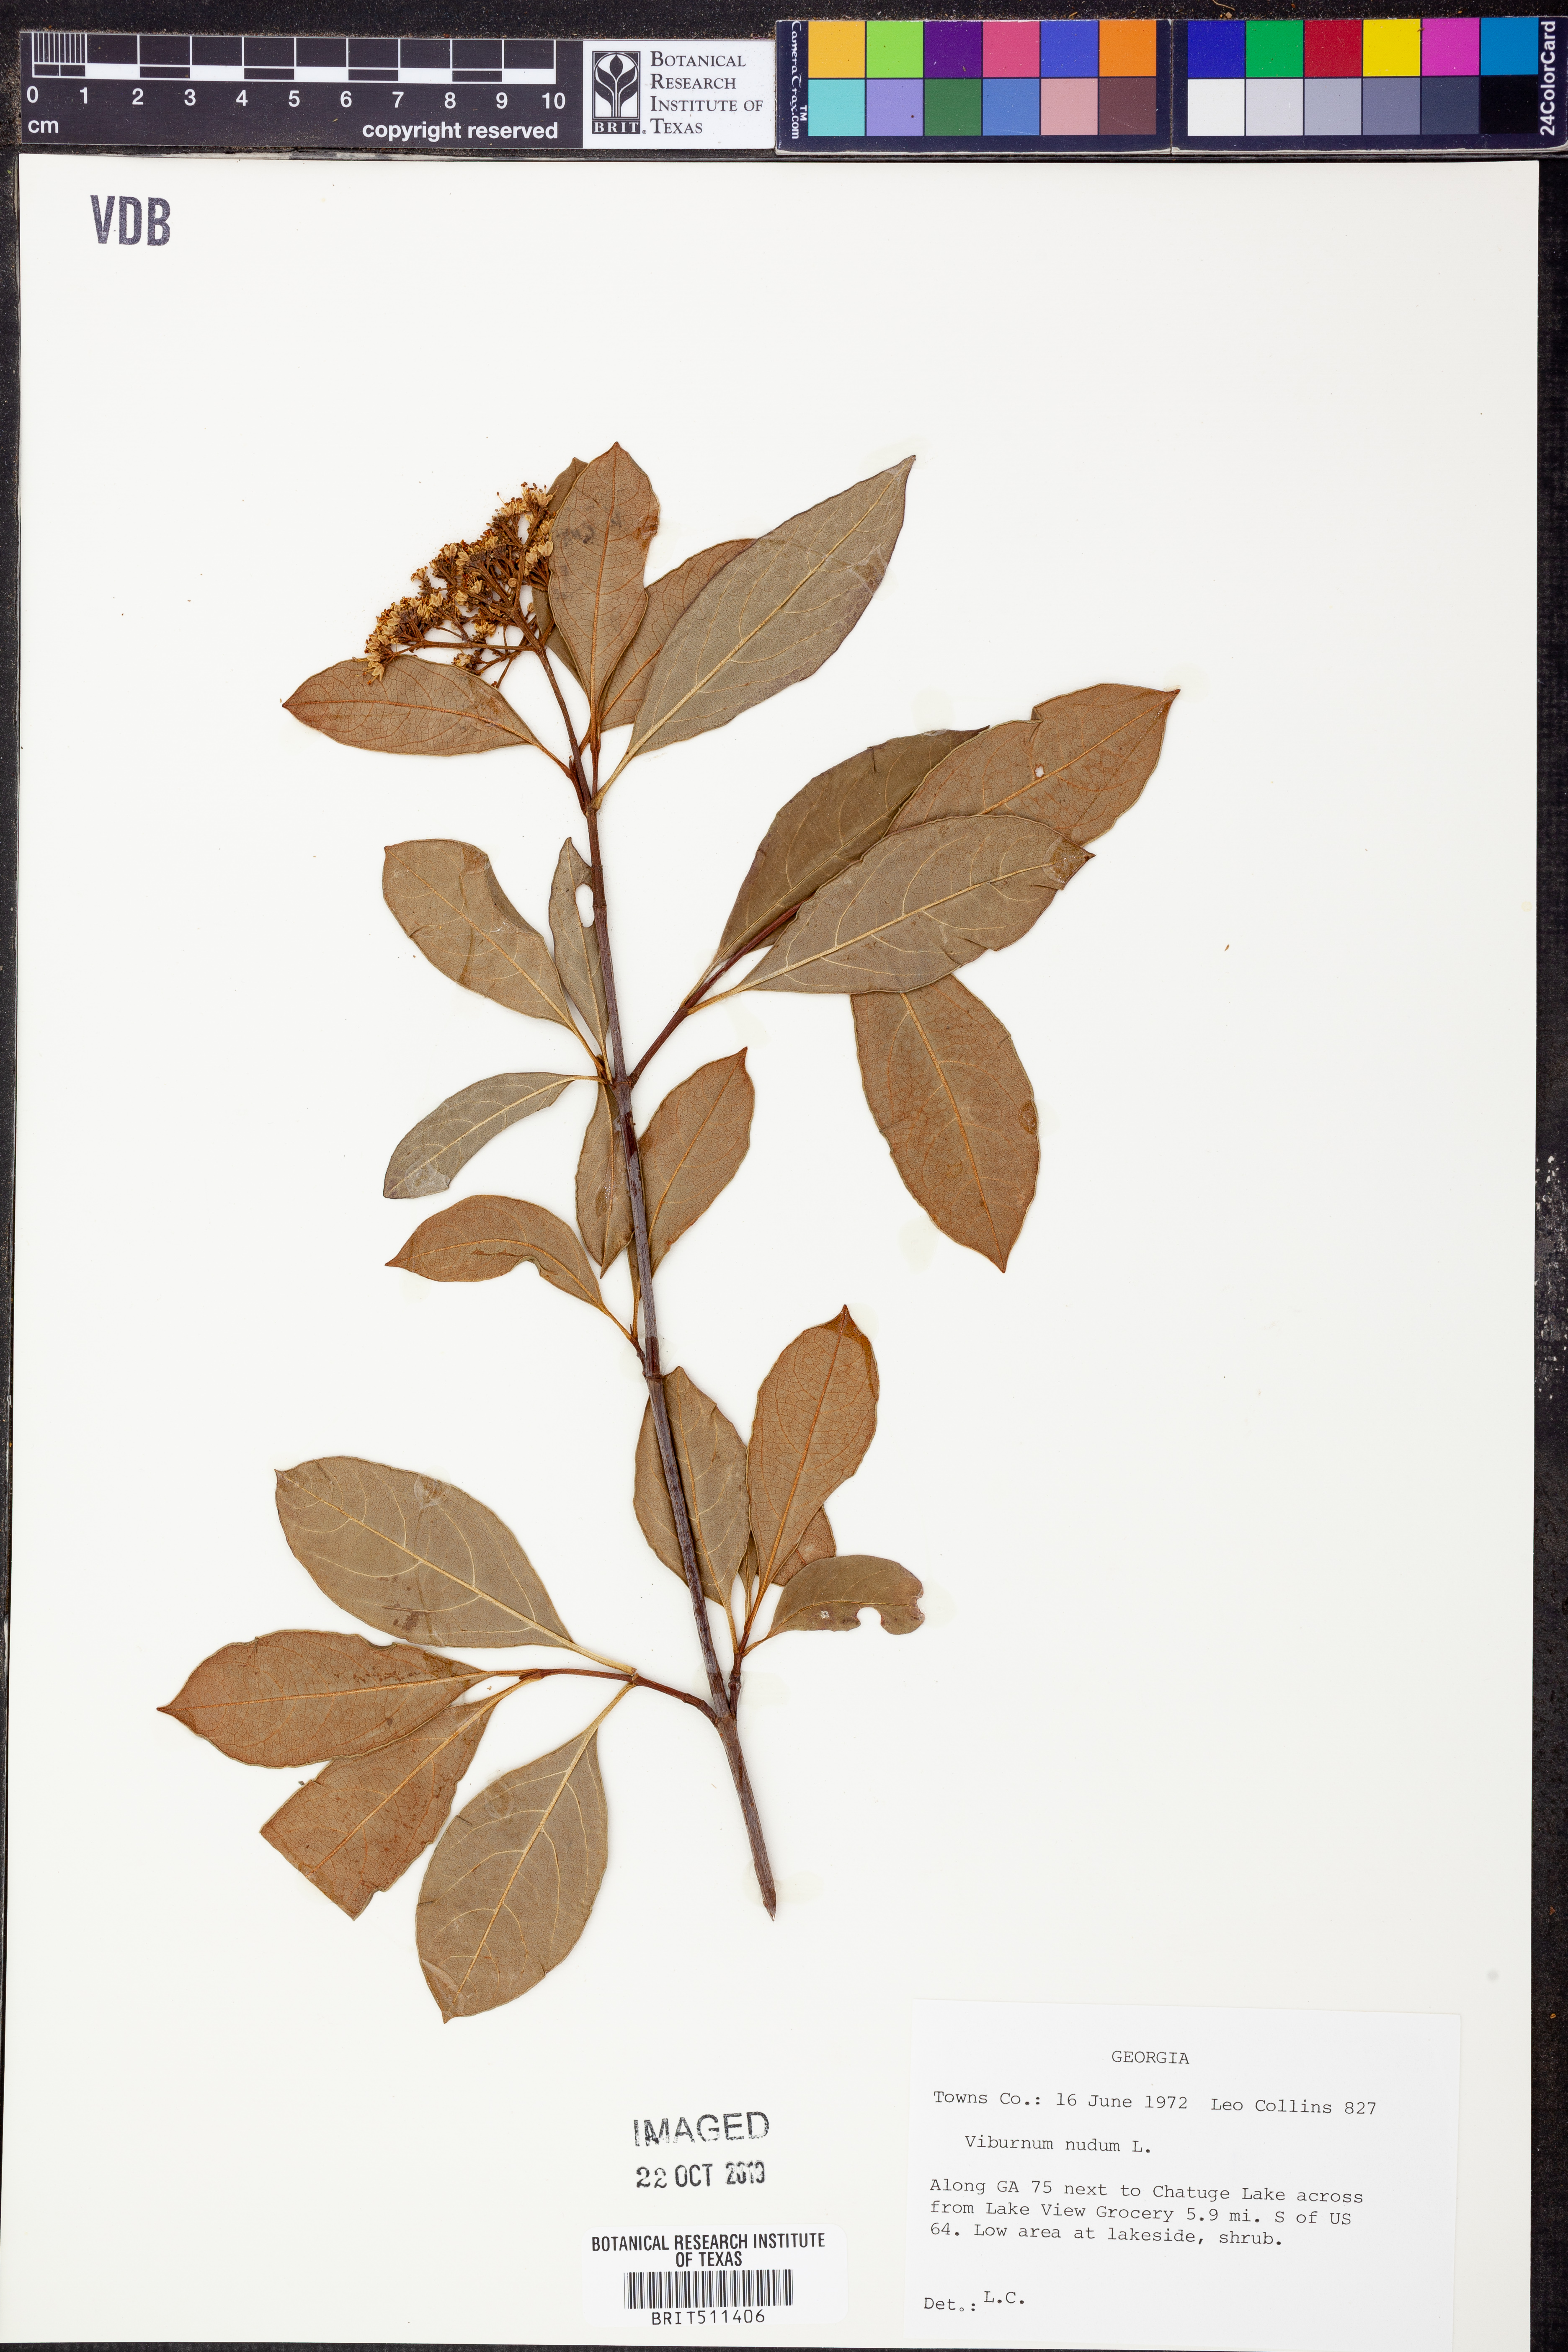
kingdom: Plantae
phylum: Tracheophyta
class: Magnoliopsida
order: Dipsacales
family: Viburnaceae
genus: Viburnum
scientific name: Viburnum nudum
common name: Possum haw
